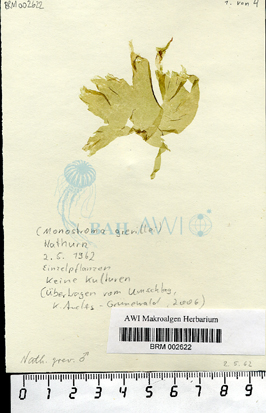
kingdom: Plantae
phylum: Chlorophyta
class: Ulvophyceae
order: Ulvales
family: Monostromataceae
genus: Monostroma
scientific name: Monostroma grevillei
